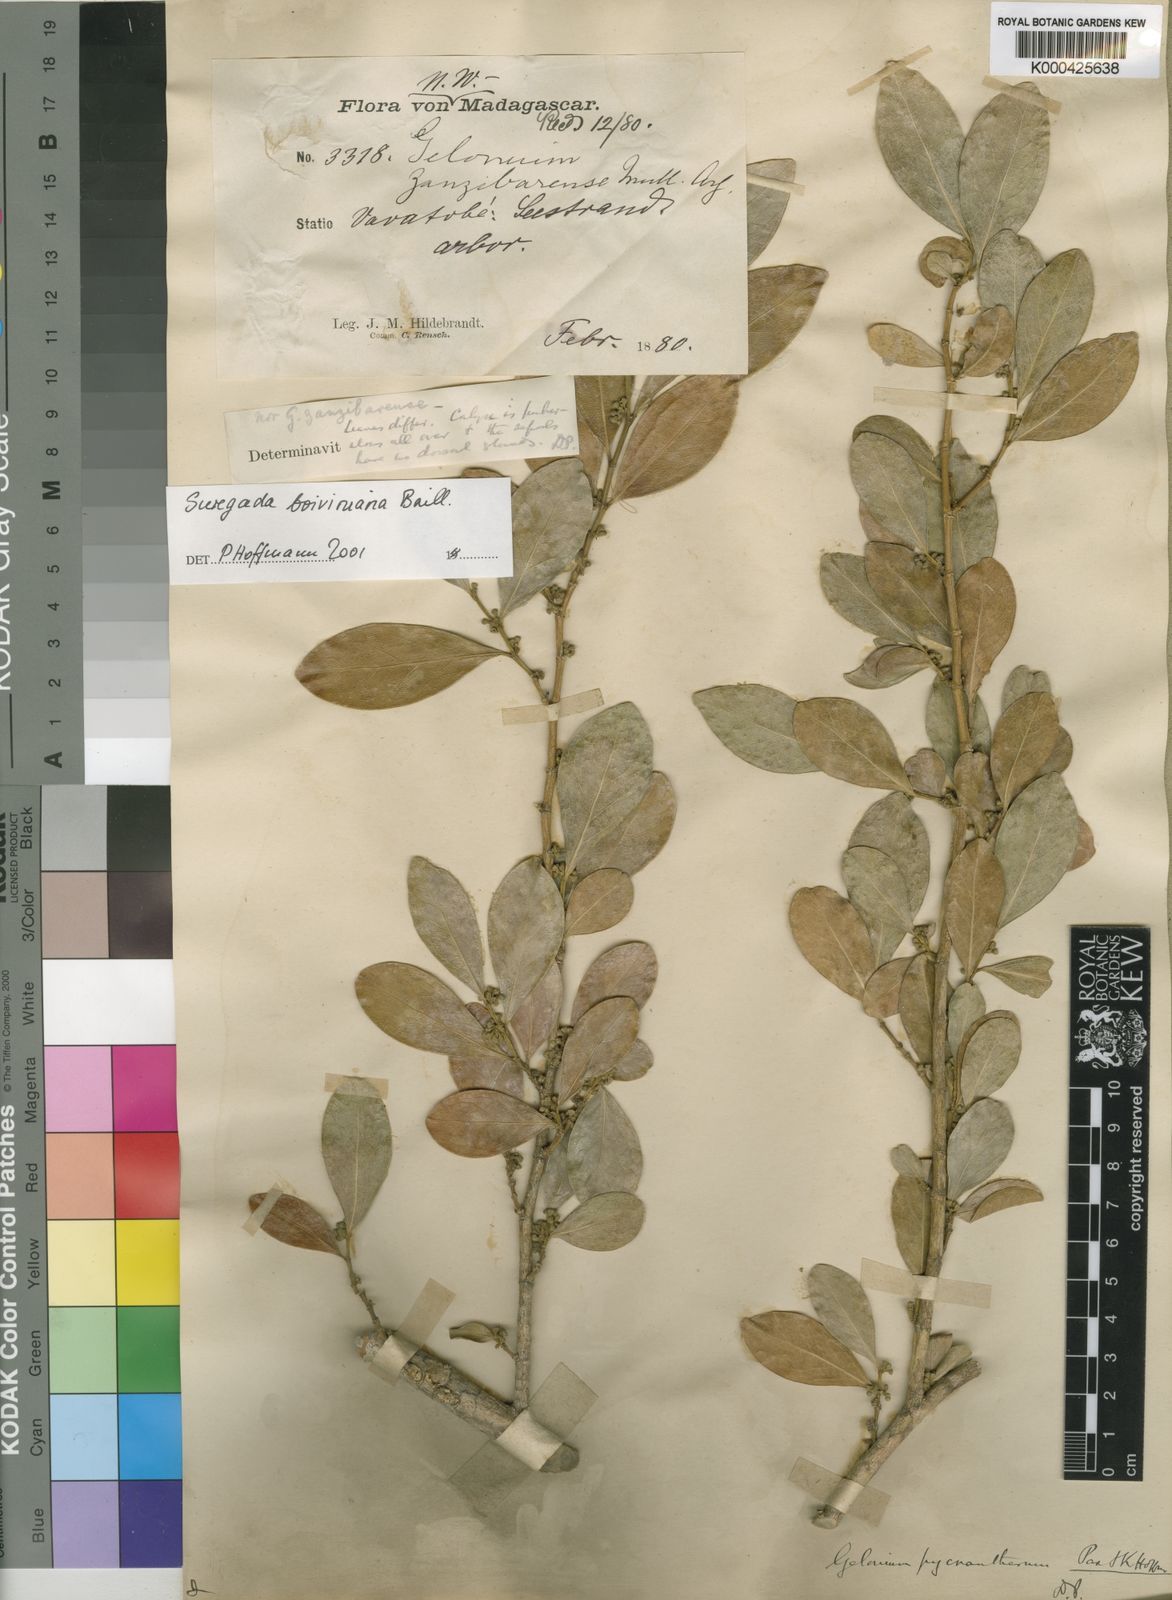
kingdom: Plantae
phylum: Tracheophyta
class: Magnoliopsida
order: Malpighiales
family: Euphorbiaceae
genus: Suregada
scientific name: Suregada boiviniana
